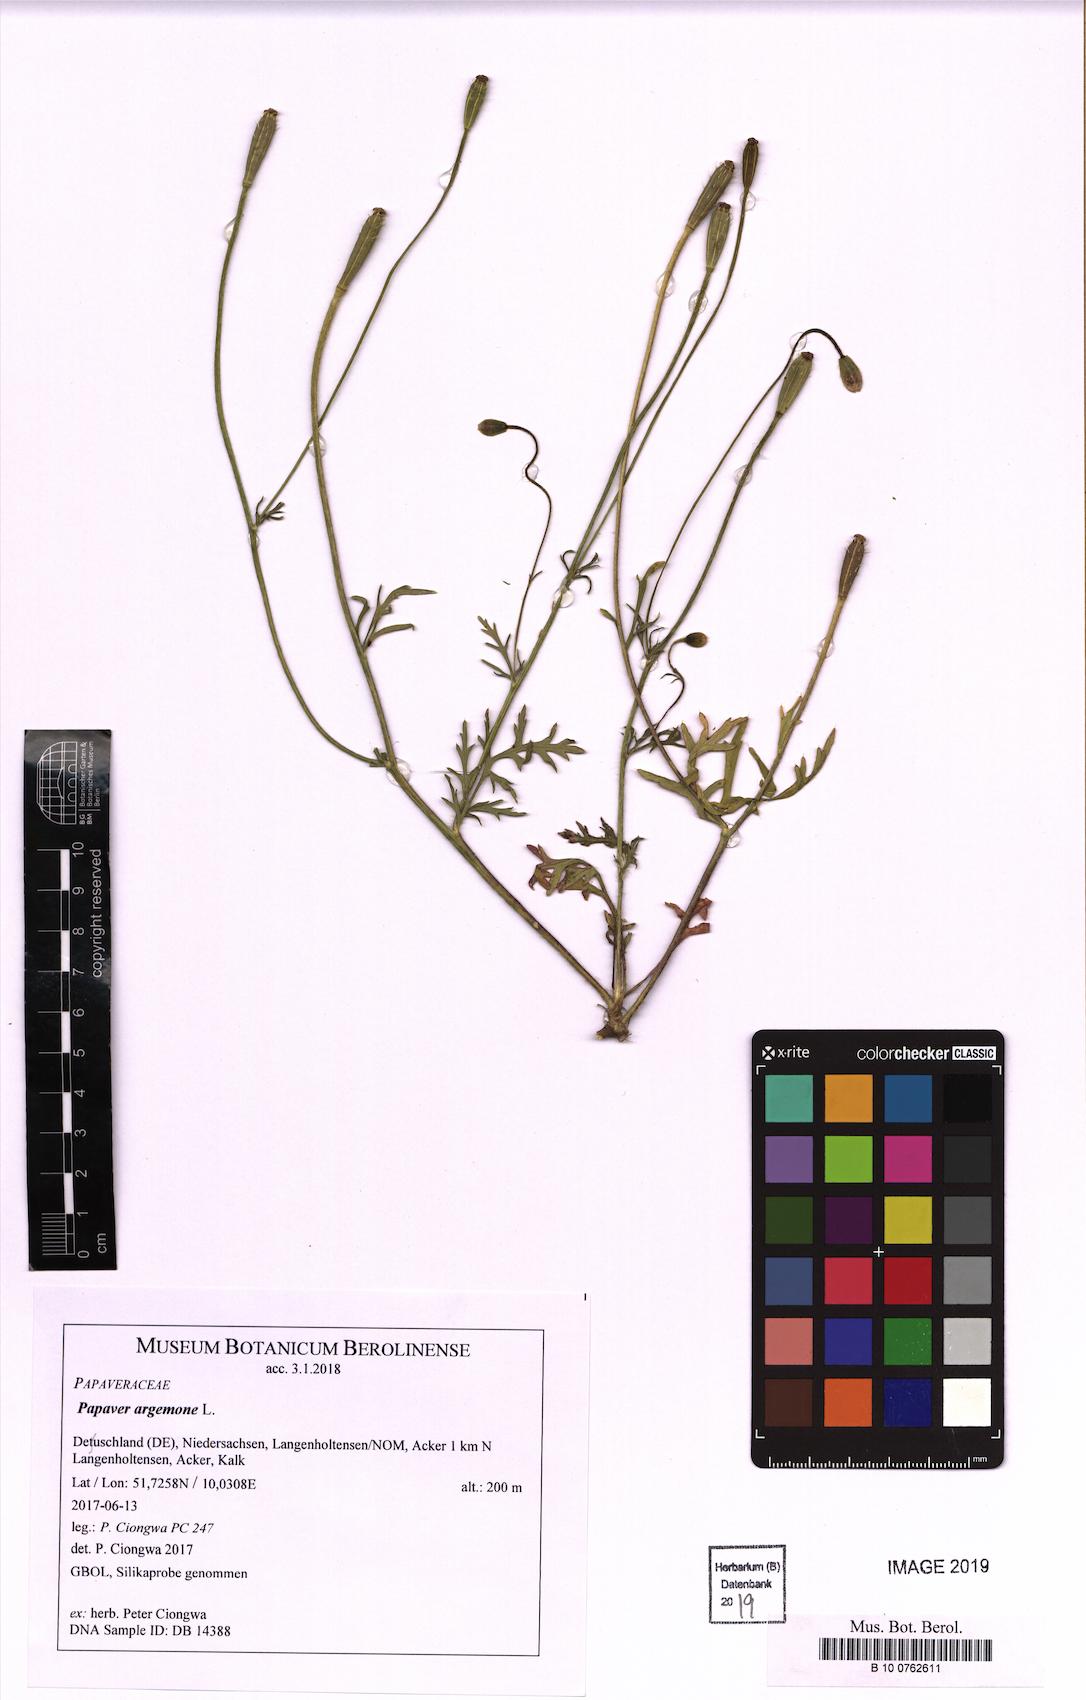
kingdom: Plantae
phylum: Tracheophyta
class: Magnoliopsida
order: Ranunculales
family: Papaveraceae
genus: Roemeria
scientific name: Roemeria argemone
